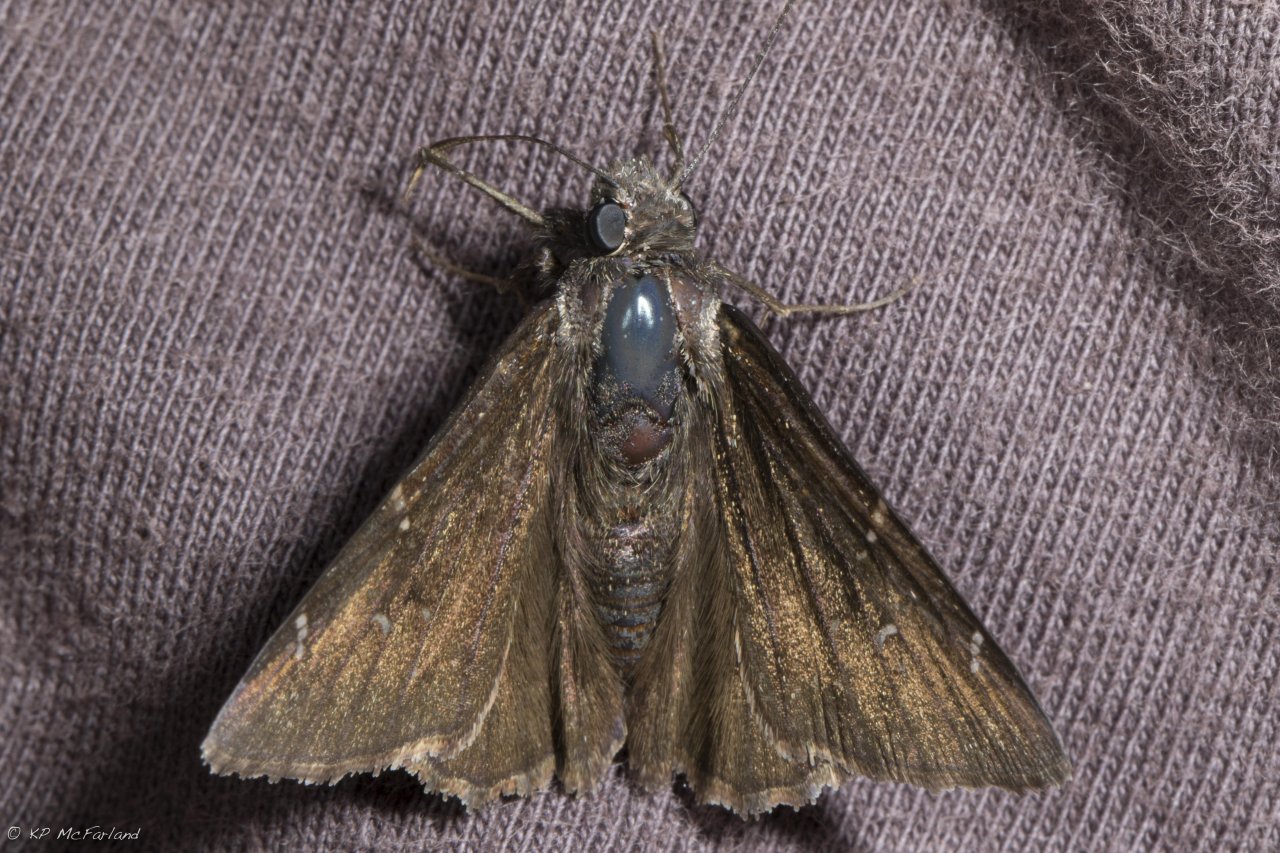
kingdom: Animalia
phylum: Arthropoda
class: Insecta
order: Lepidoptera
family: Hesperiidae
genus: Autochton
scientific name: Autochton
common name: Northern Cloudywing
